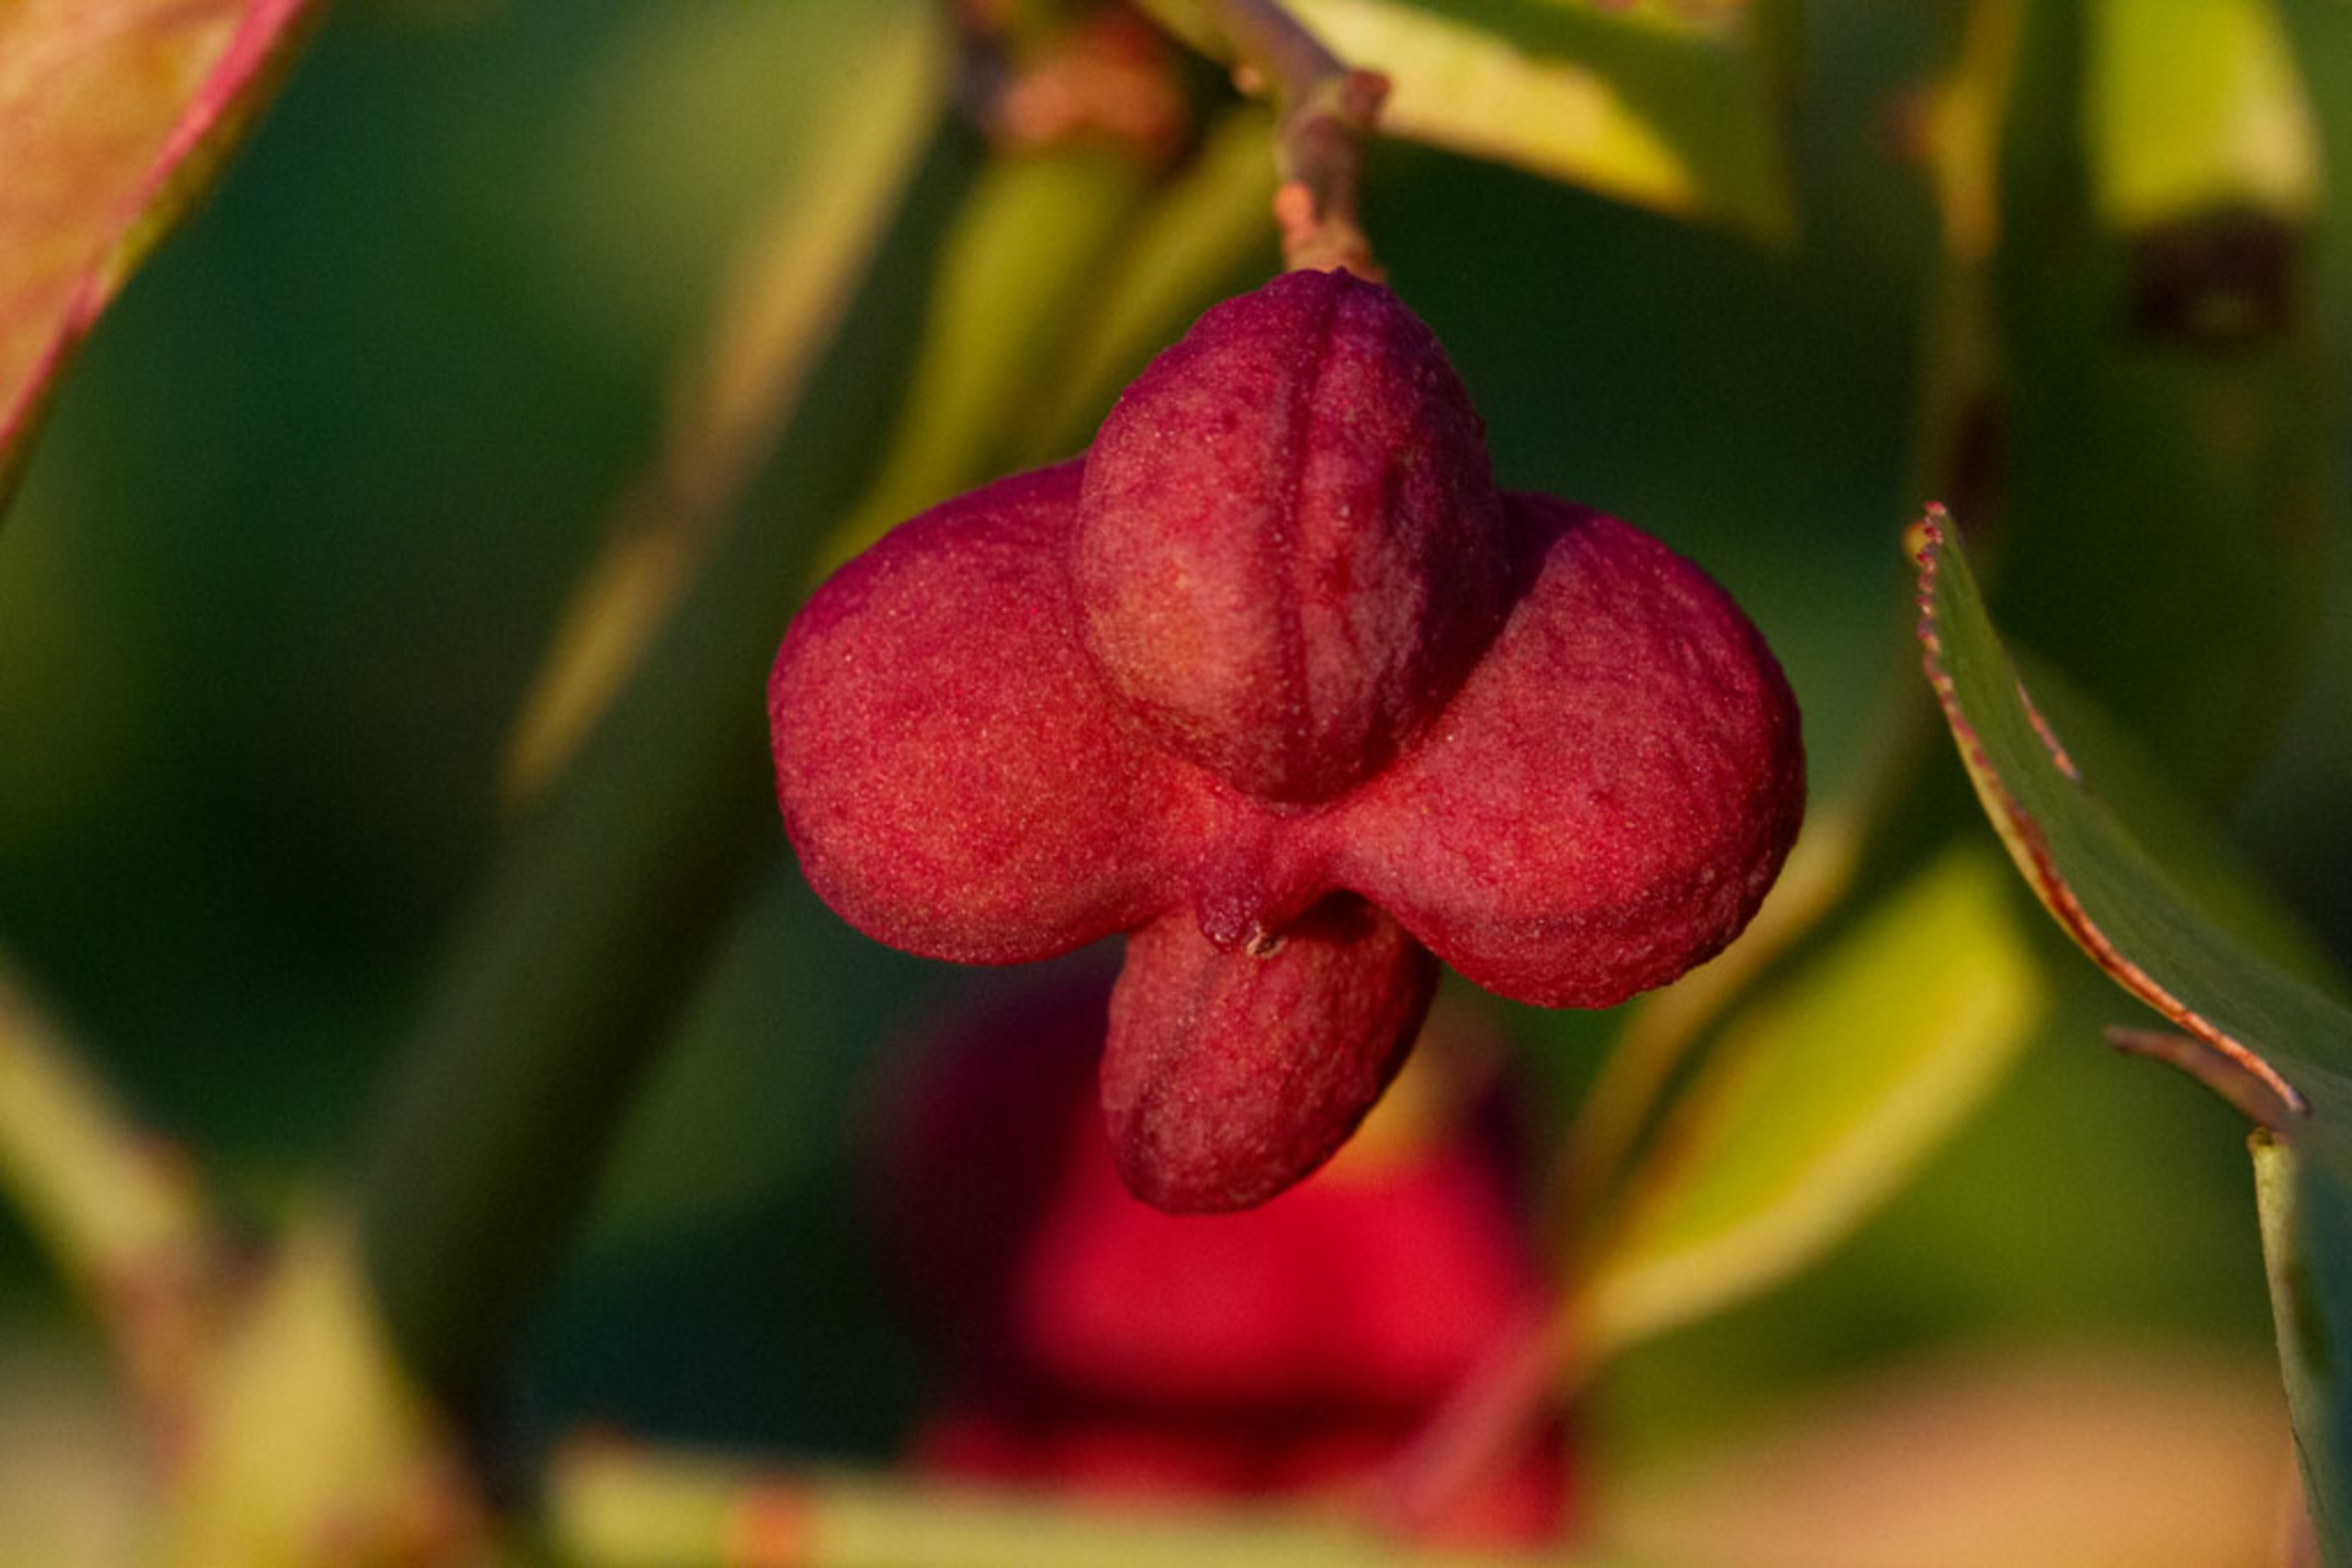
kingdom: Plantae
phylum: Tracheophyta
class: Magnoliopsida
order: Celastrales
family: Celastraceae
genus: Euonymus
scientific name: Euonymus europaeus
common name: Benved
